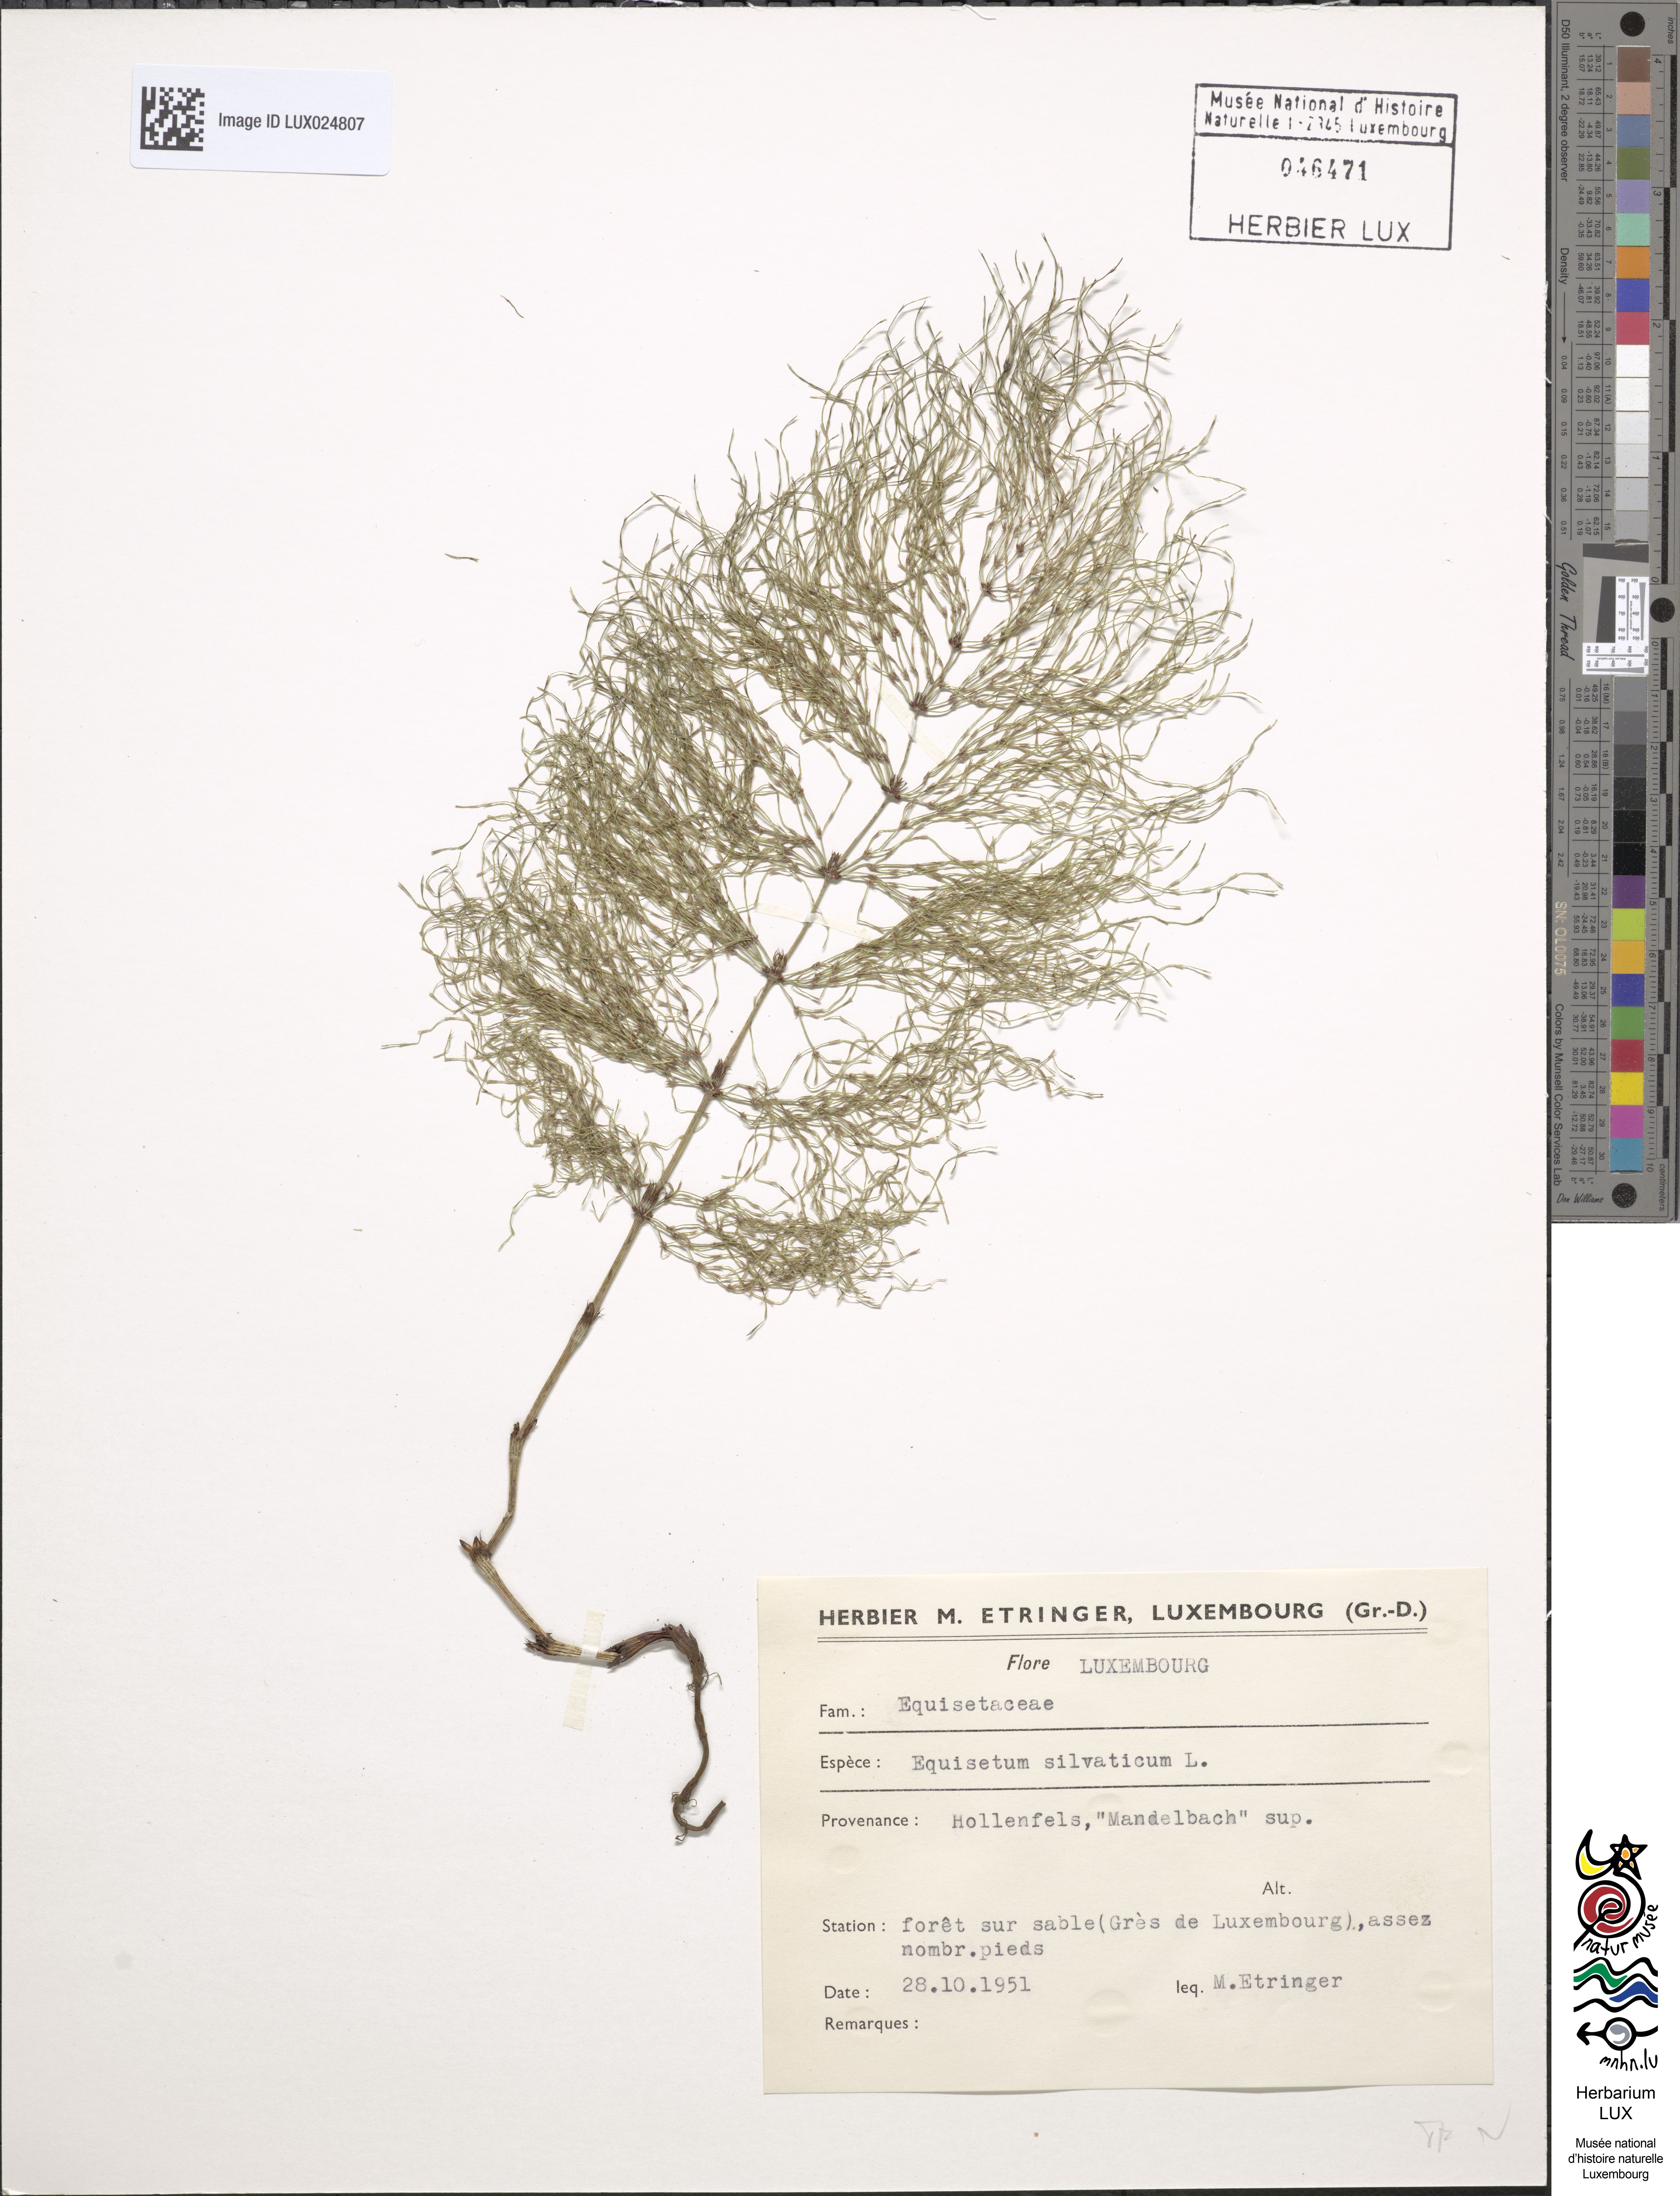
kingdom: Plantae
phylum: Tracheophyta
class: Polypodiopsida
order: Equisetales
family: Equisetaceae
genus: Equisetum
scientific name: Equisetum sylvaticum
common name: Wood horsetail
